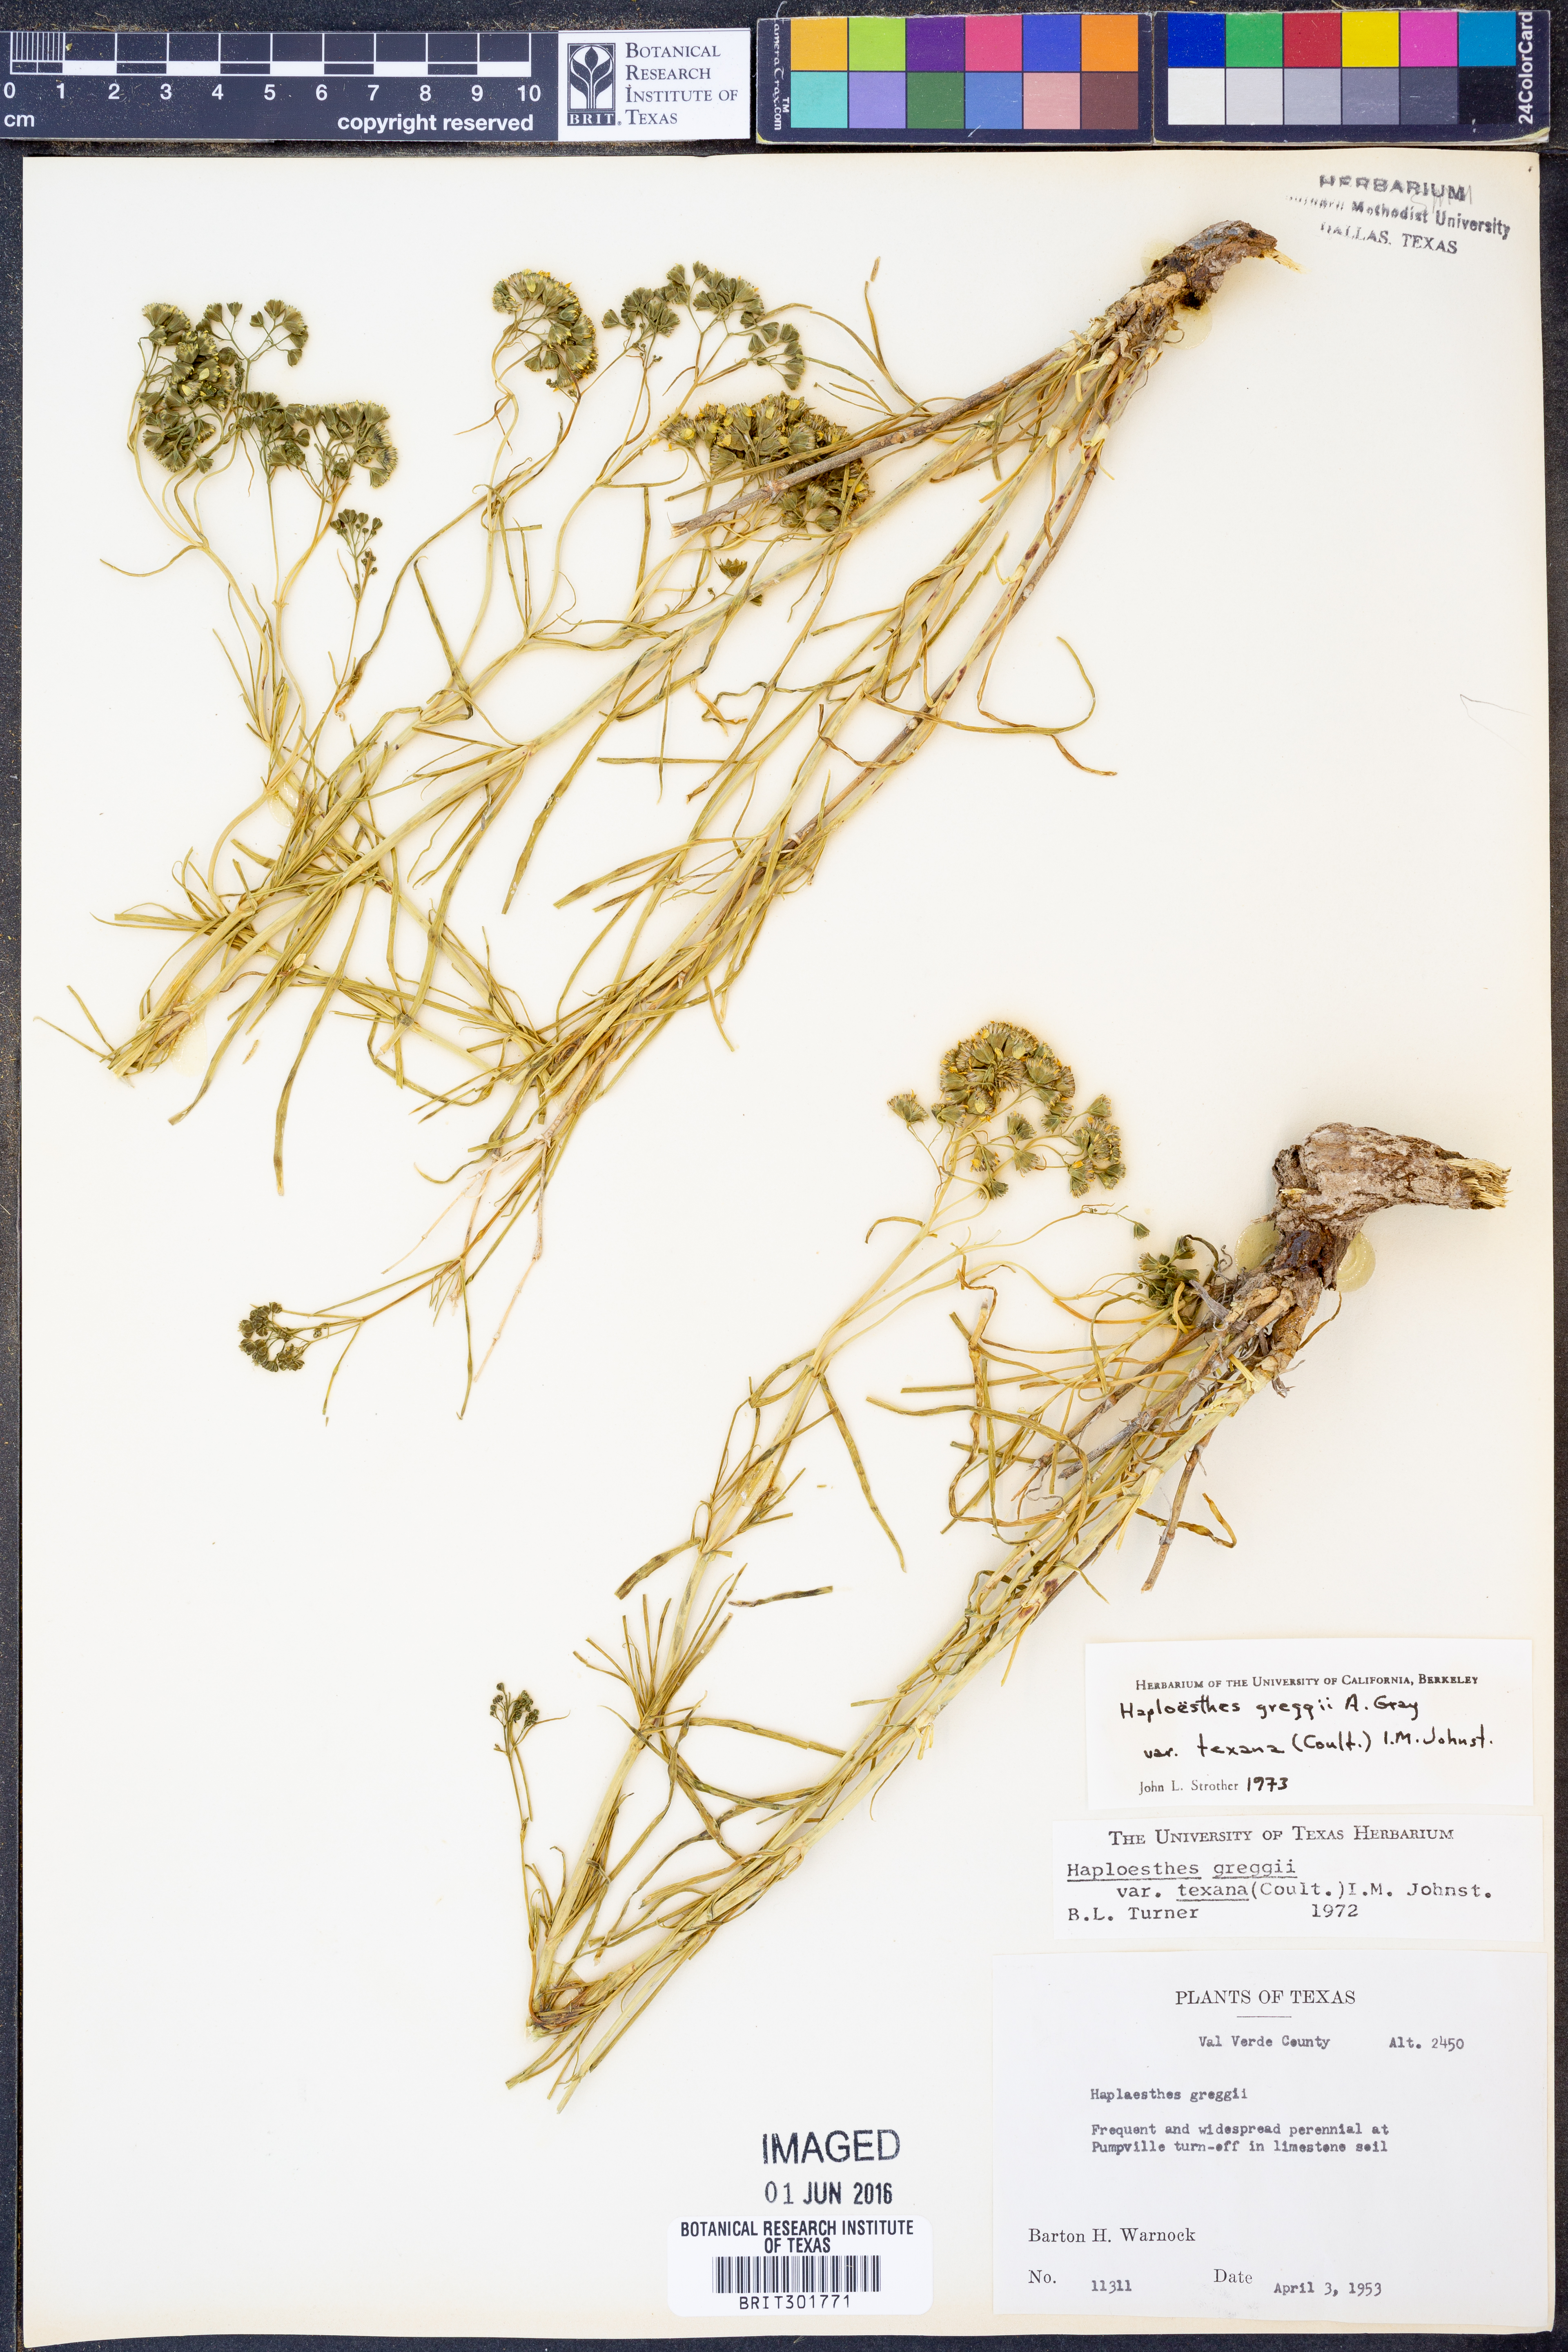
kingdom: Plantae
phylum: Tracheophyta
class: Magnoliopsida
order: Asterales
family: Asteraceae
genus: Haploesthes
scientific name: Haploesthes greggii
